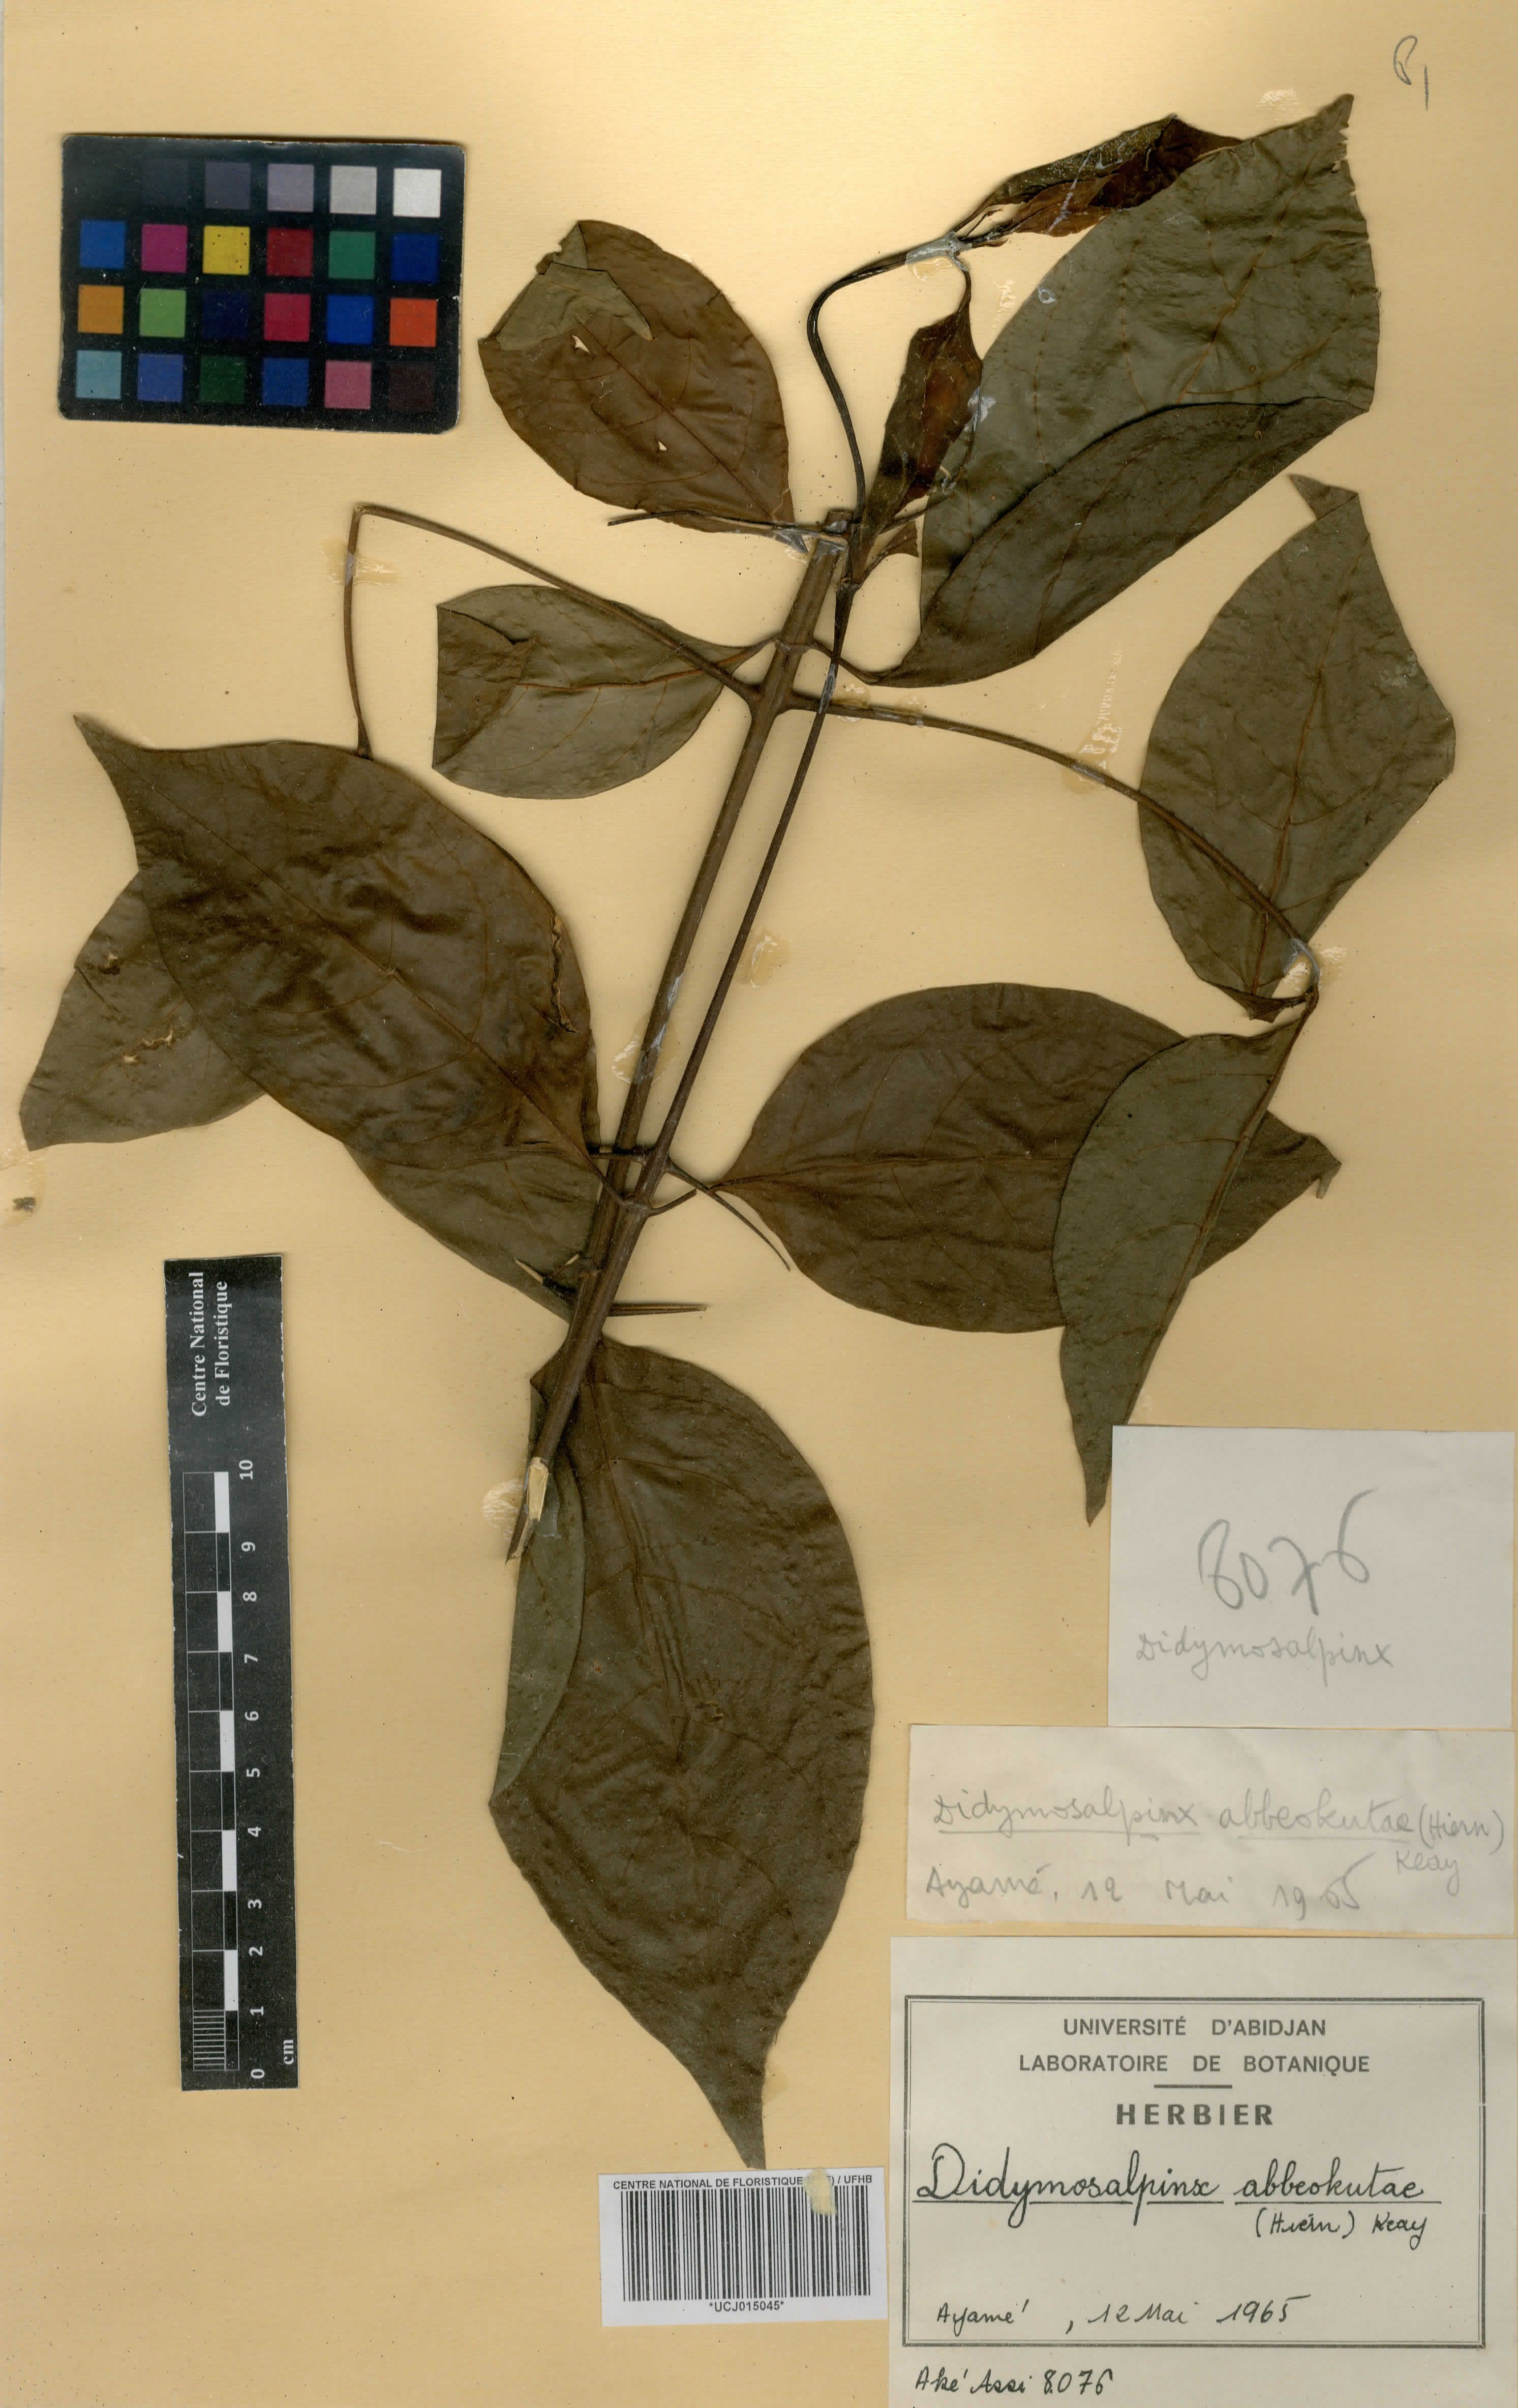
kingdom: Plantae
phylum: Tracheophyta
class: Magnoliopsida
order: Gentianales
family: Rubiaceae
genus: Didymosalpinx
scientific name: Didymosalpinx abbeokutae
